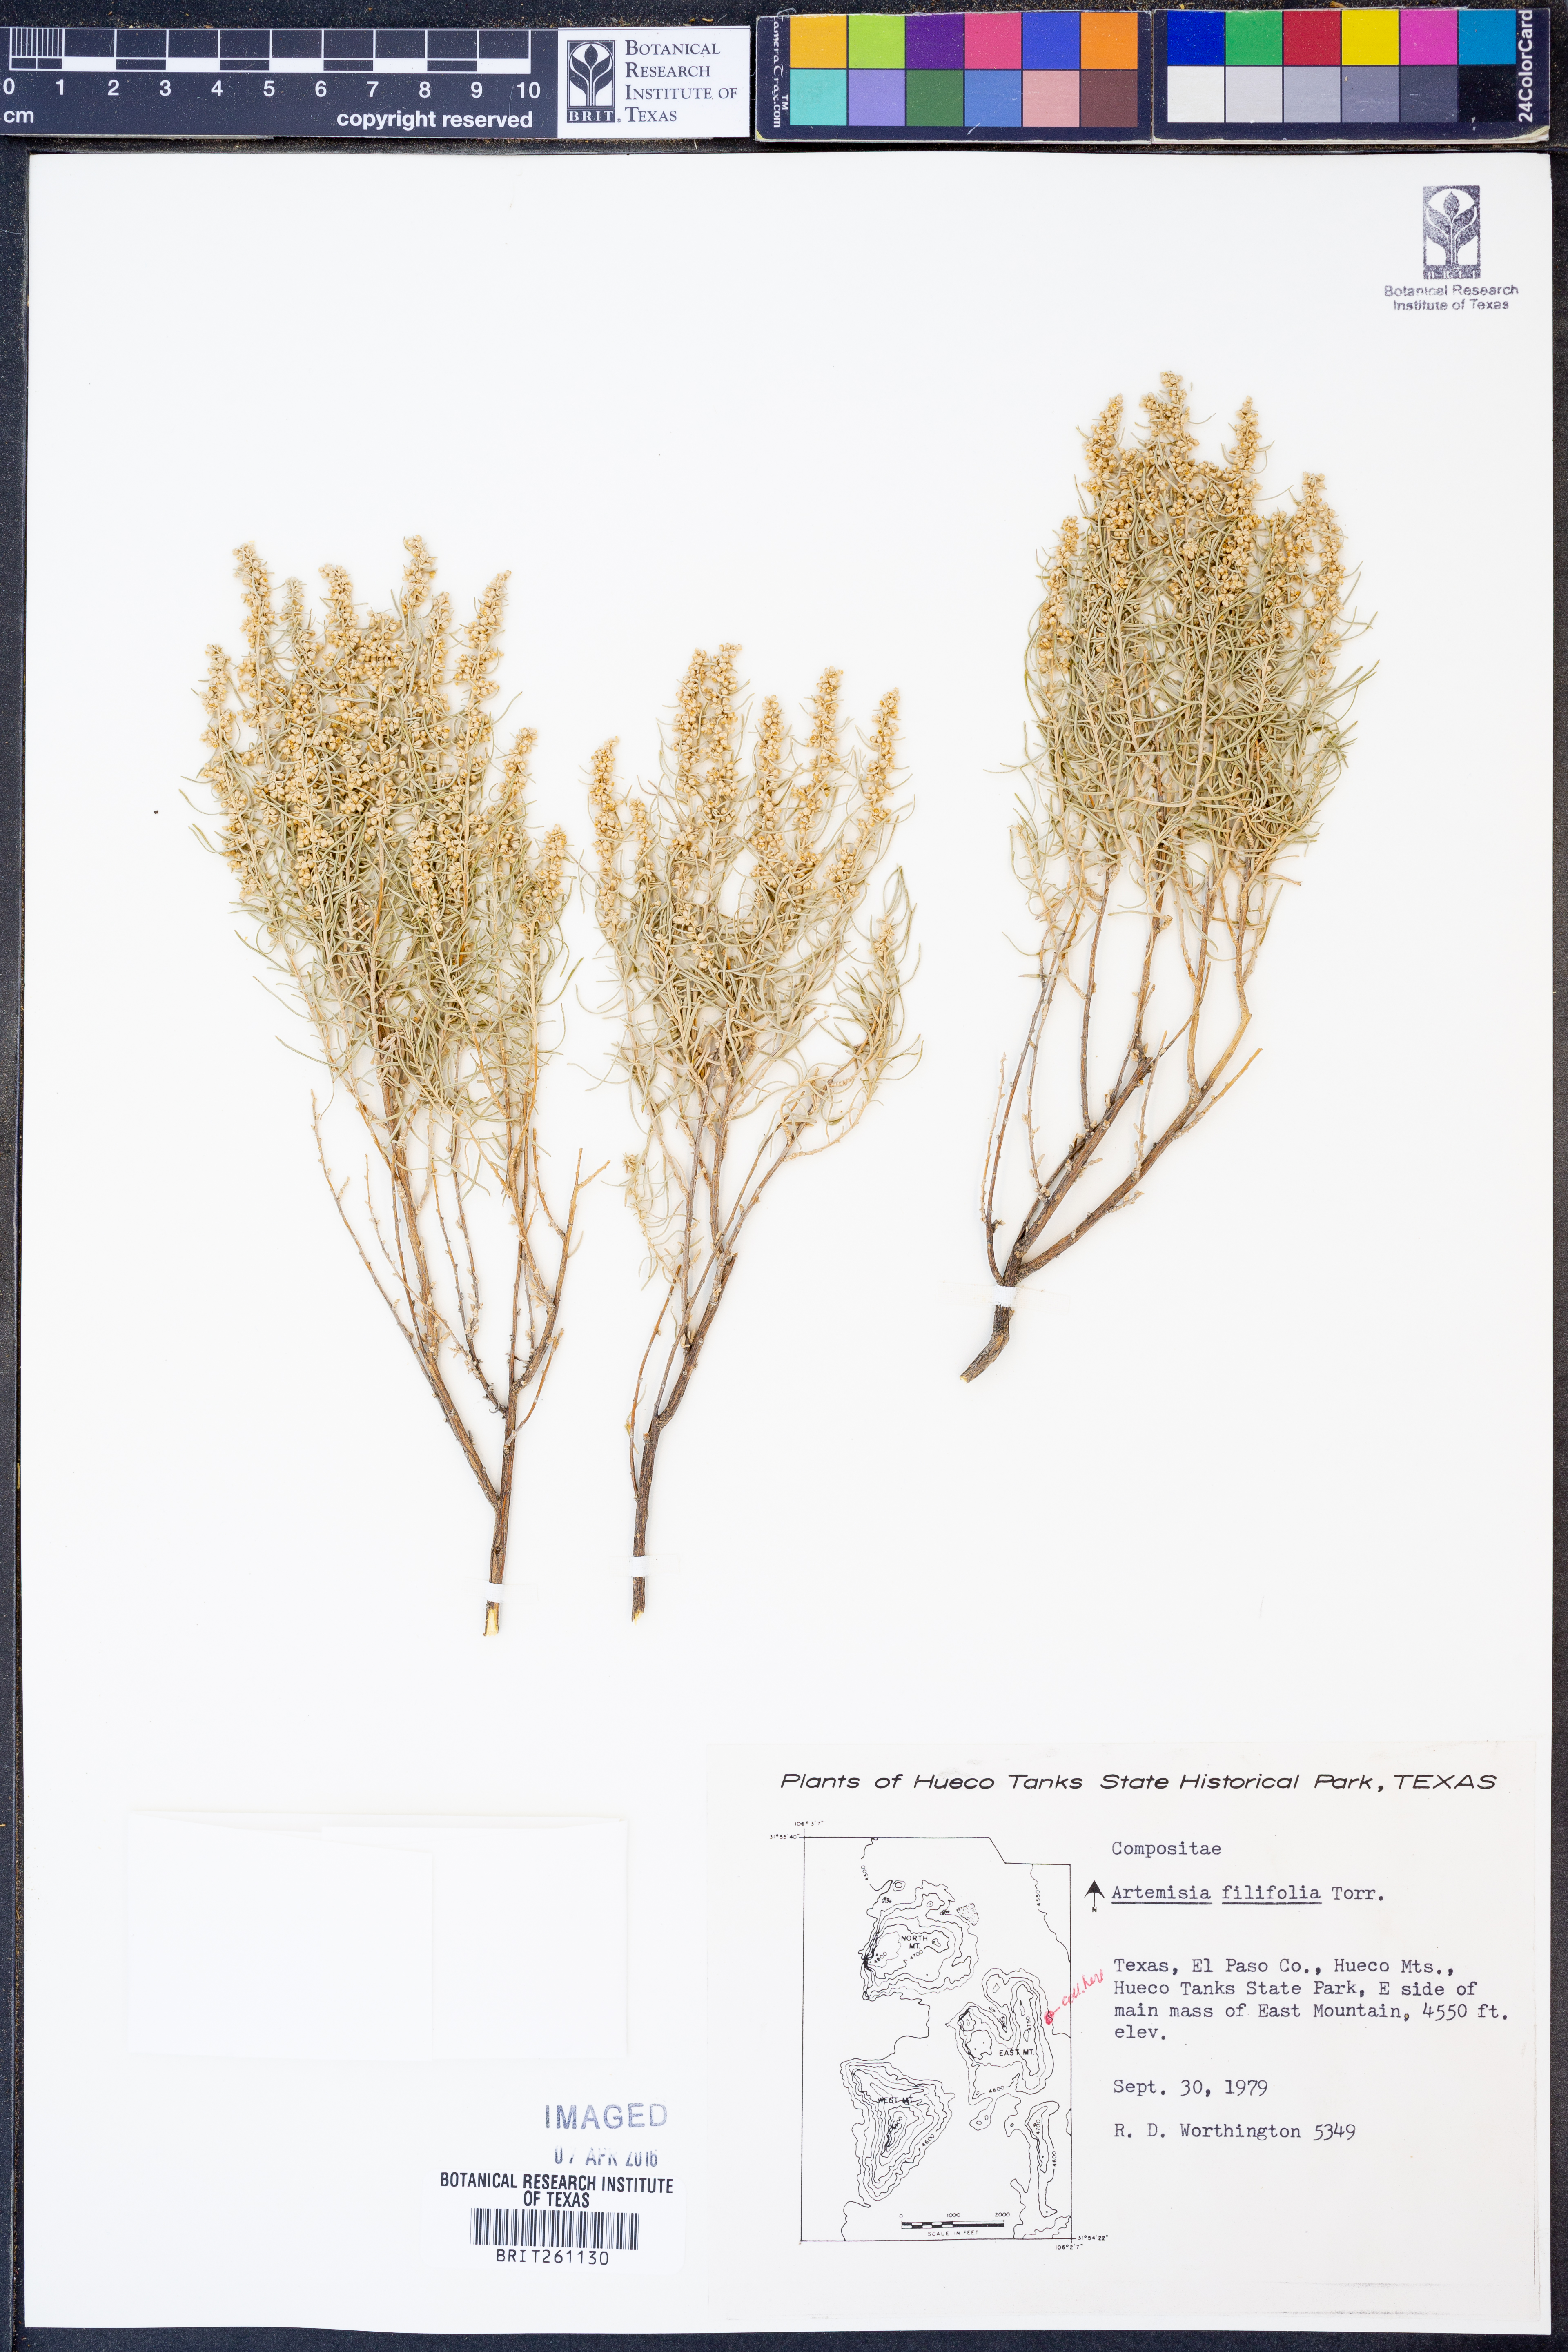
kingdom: Plantae
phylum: Tracheophyta
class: Magnoliopsida
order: Asterales
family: Asteraceae
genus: Artemisia
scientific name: Artemisia filifolia
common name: Sand-sage
